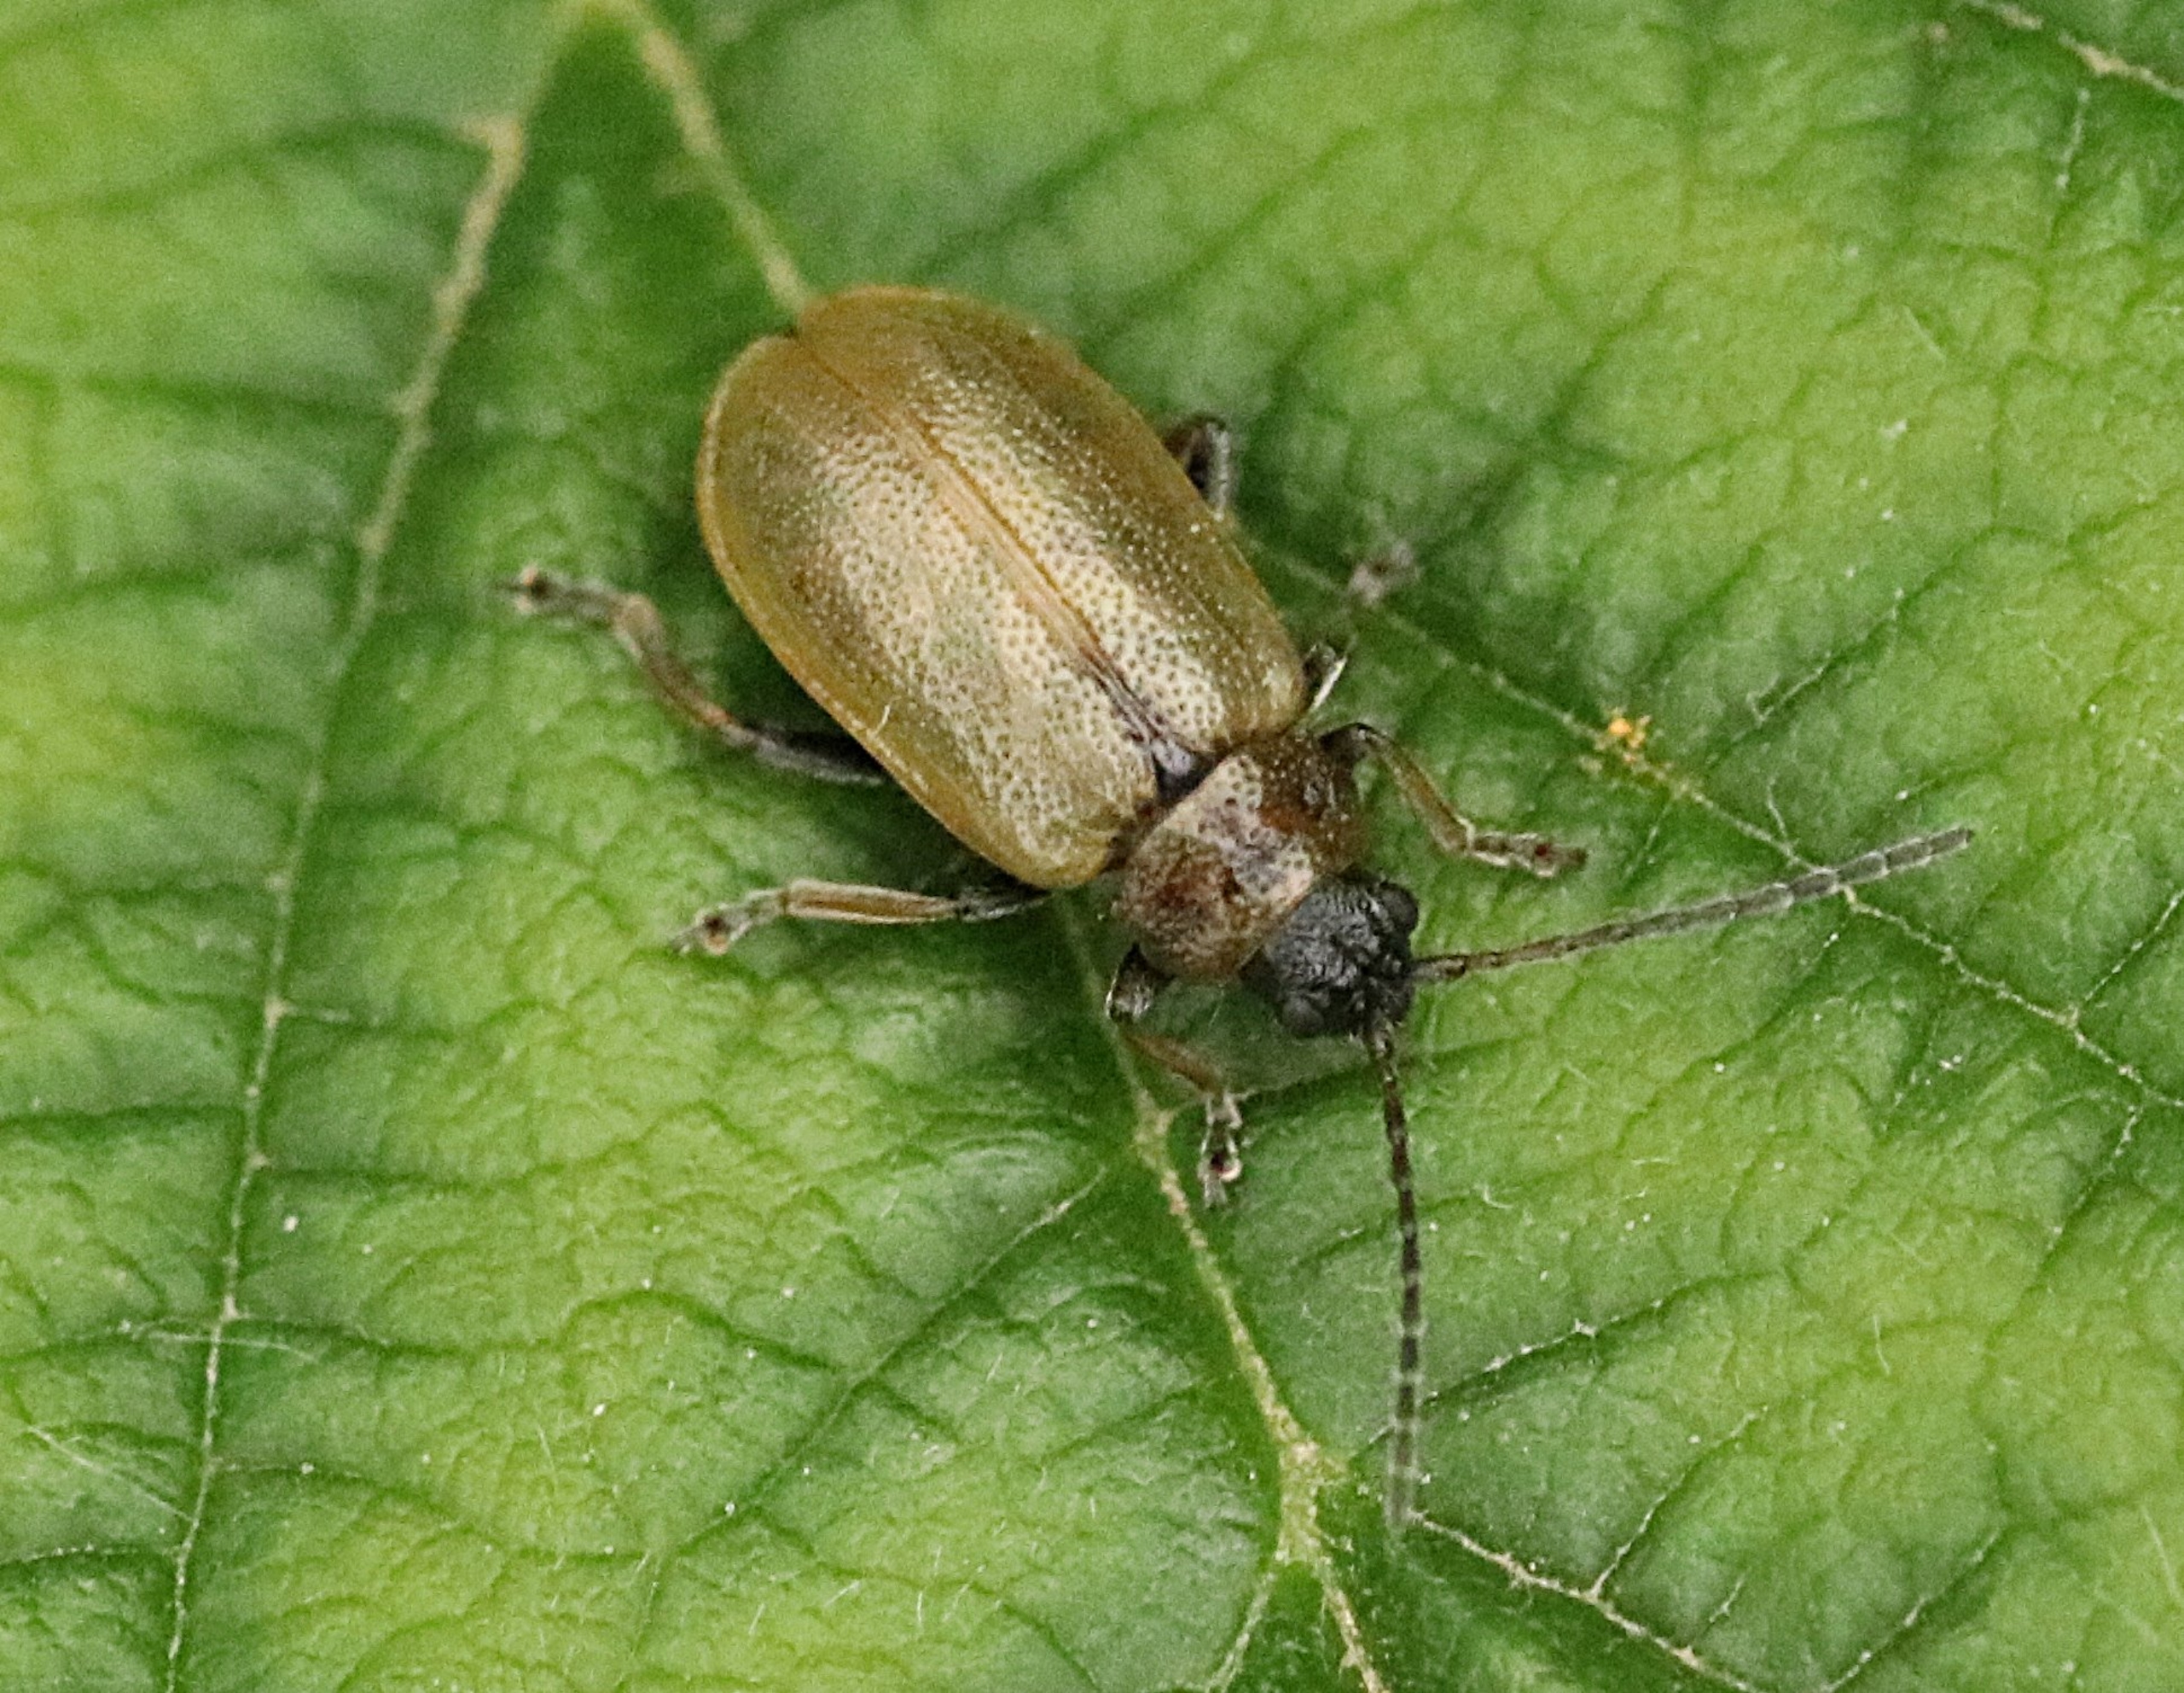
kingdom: Animalia
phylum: Arthropoda
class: Insecta
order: Coleoptera
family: Chrysomelidae
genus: Lochmaea
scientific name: Lochmaea caprea
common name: Rødbrun birkebladbille
